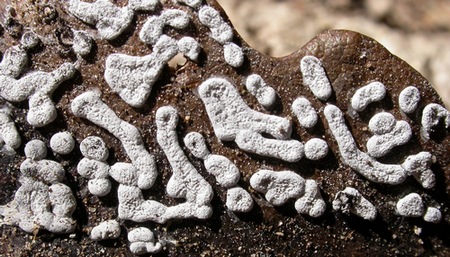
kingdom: Protozoa
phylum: Mycetozoa
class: Myxomycetes
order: Physarales
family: Didymiaceae
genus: Didymium
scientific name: Didymium squamulosum
